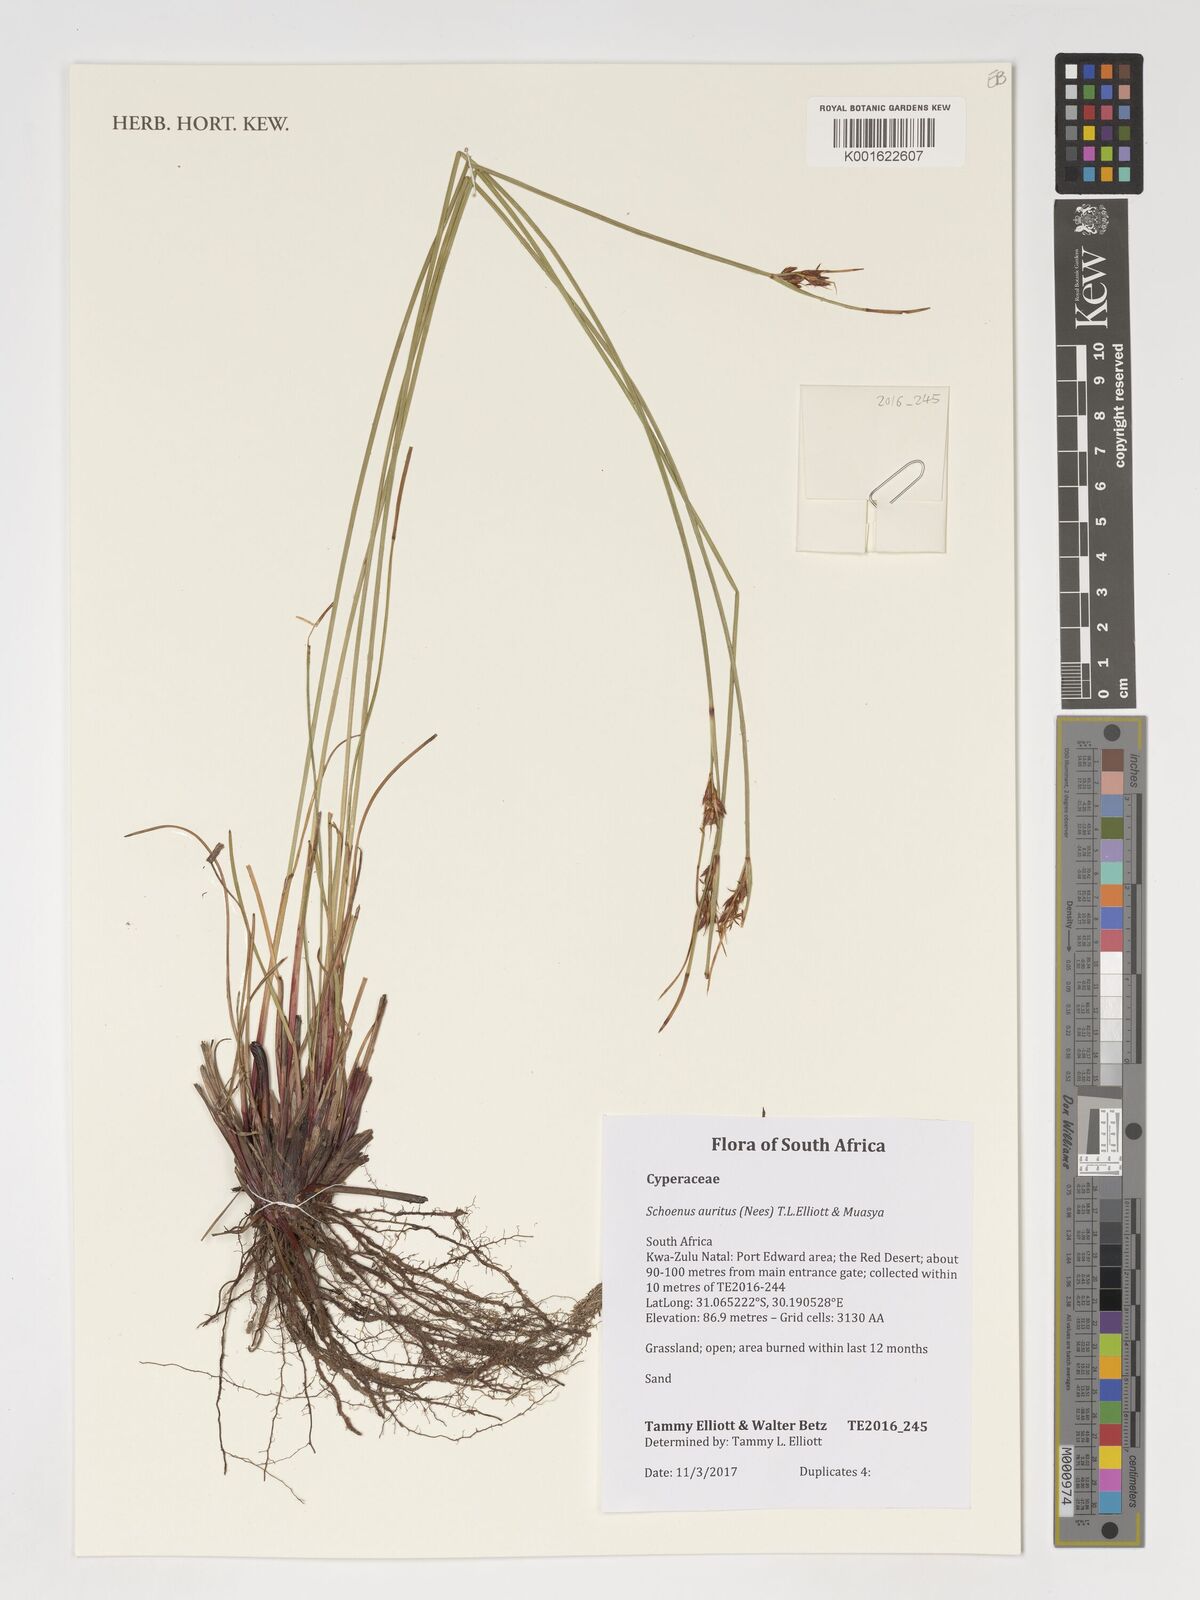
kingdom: Plantae
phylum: Tracheophyta
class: Liliopsida
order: Poales
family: Cyperaceae
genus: Schoenus
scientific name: Schoenus auritus
